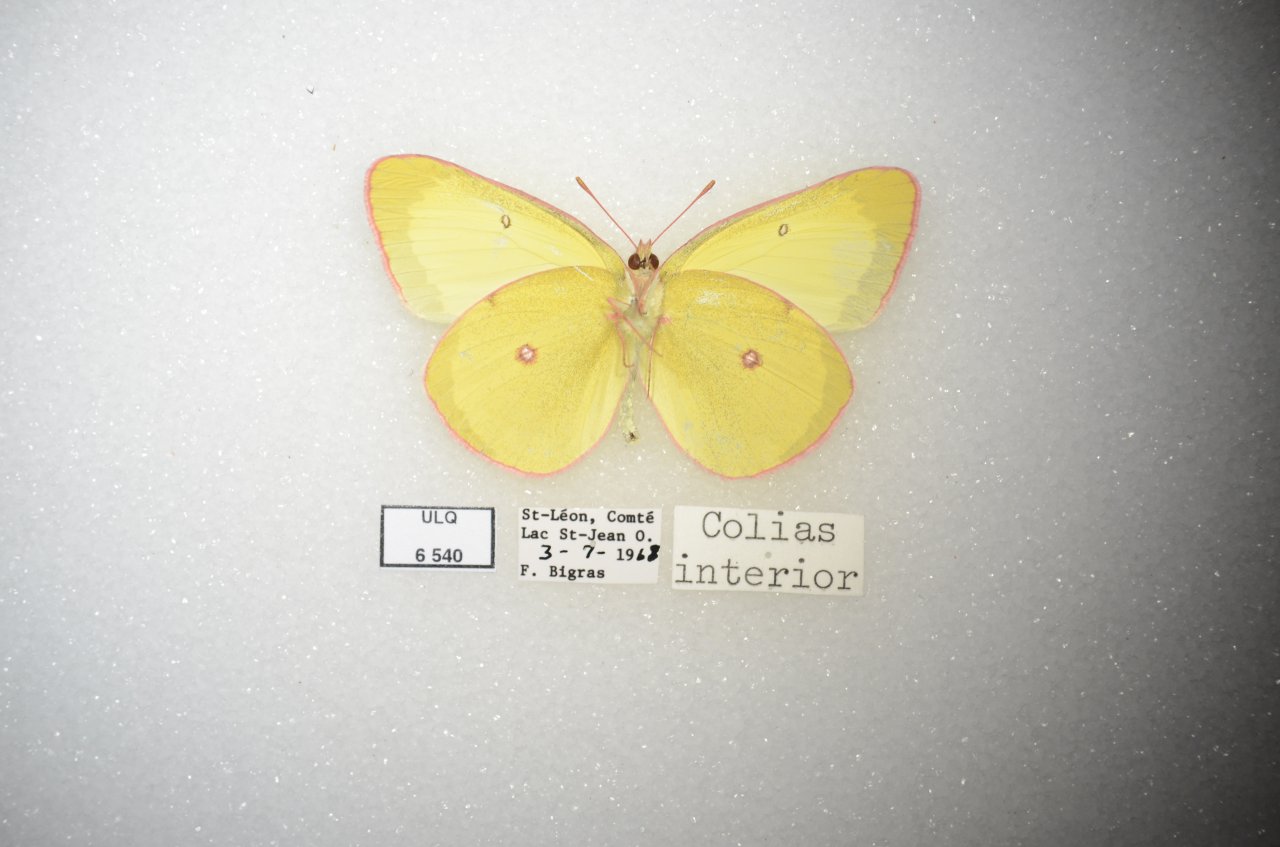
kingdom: Animalia
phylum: Arthropoda
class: Insecta
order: Lepidoptera
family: Pieridae
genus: Colias
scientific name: Colias interior
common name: Pink-edged Sulphur
